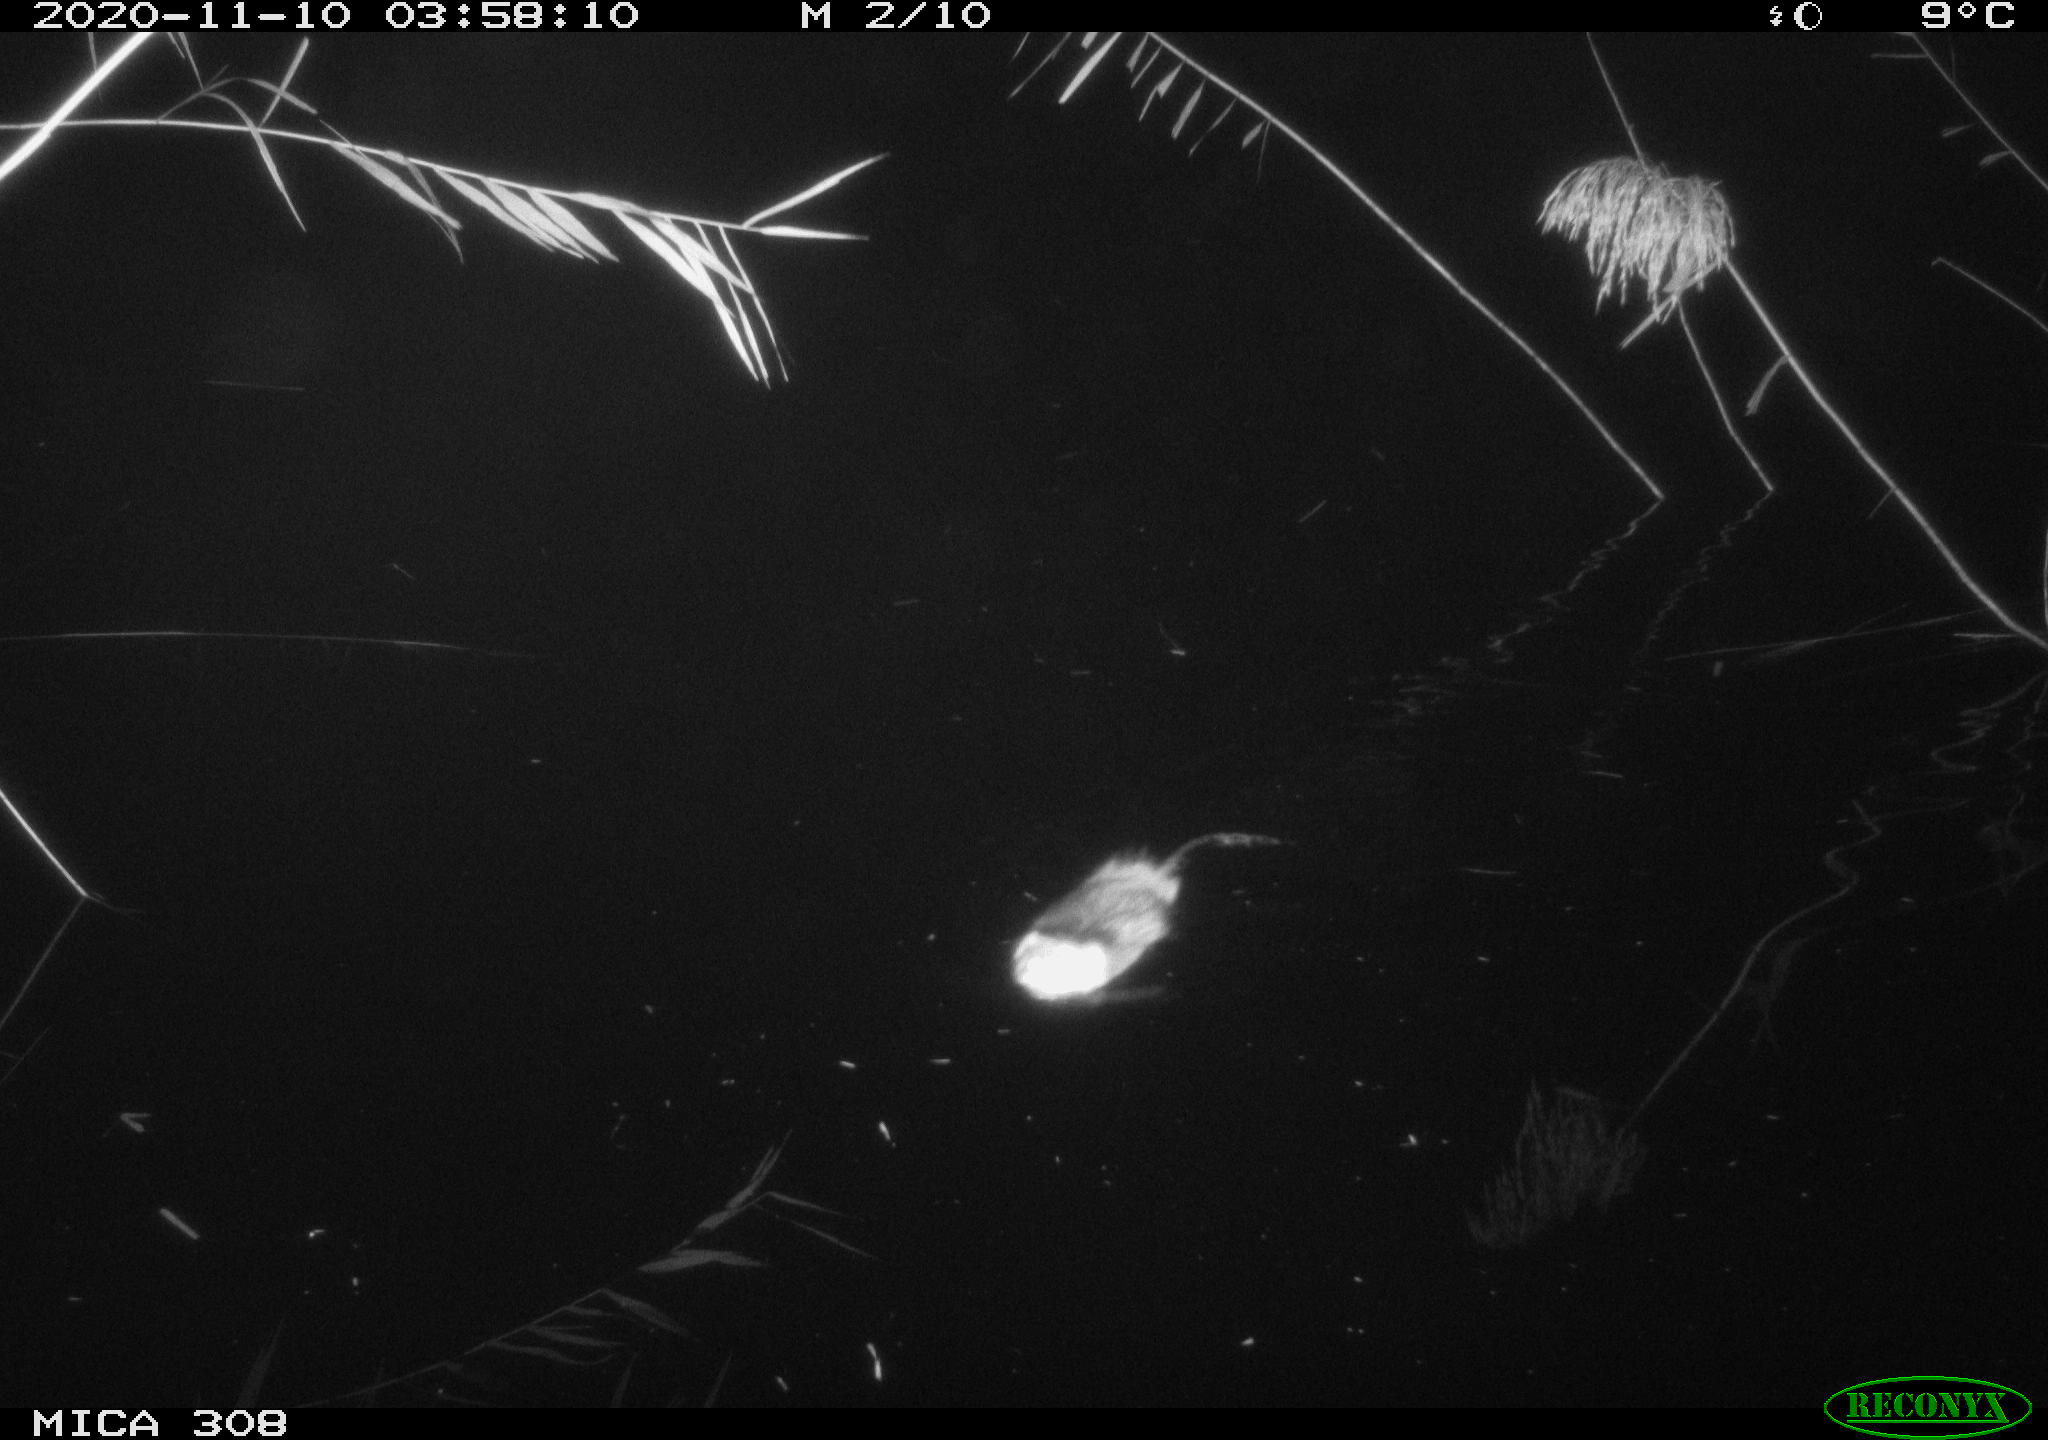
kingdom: Animalia
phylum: Chordata
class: Mammalia
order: Rodentia
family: Cricetidae
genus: Ondatra
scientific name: Ondatra zibethicus
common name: Muskrat
